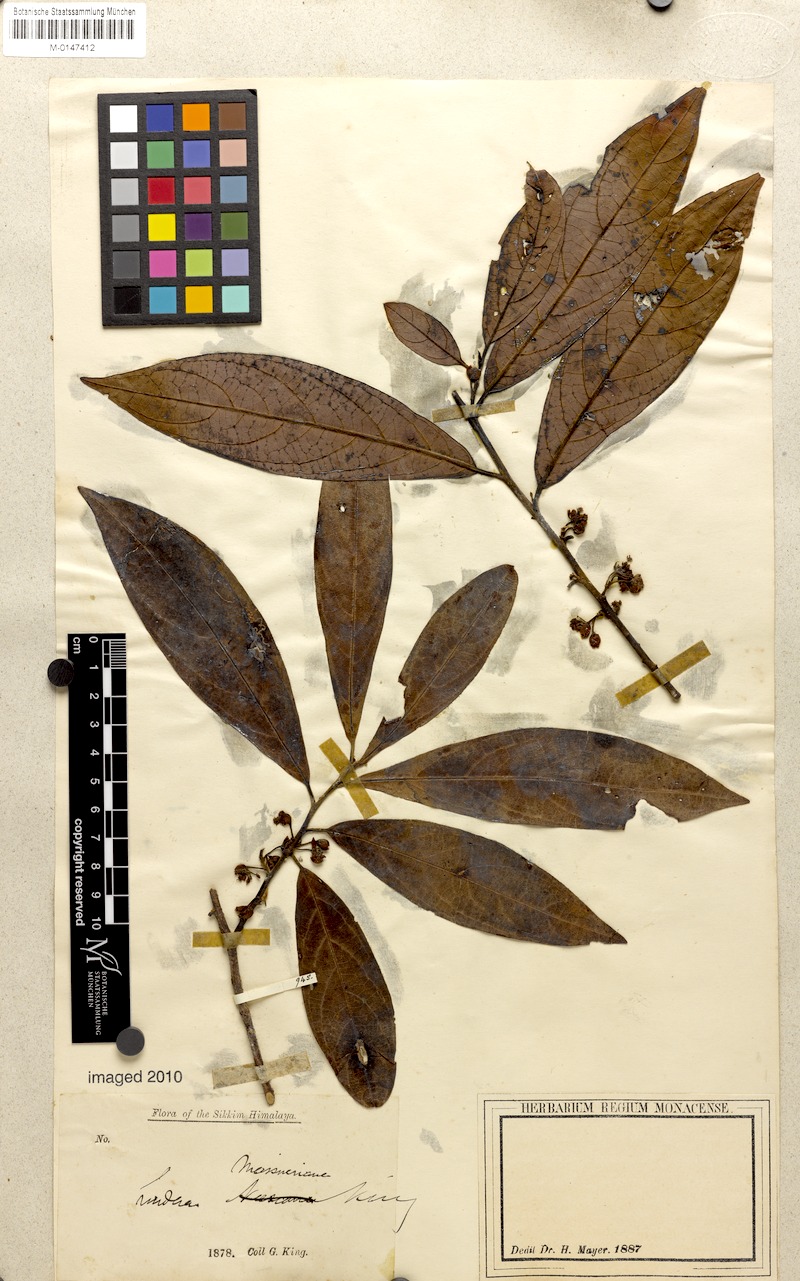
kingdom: Plantae
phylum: Tracheophyta
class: Magnoliopsida
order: Laurales
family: Lauraceae
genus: Lindera
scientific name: Lindera meissneri
